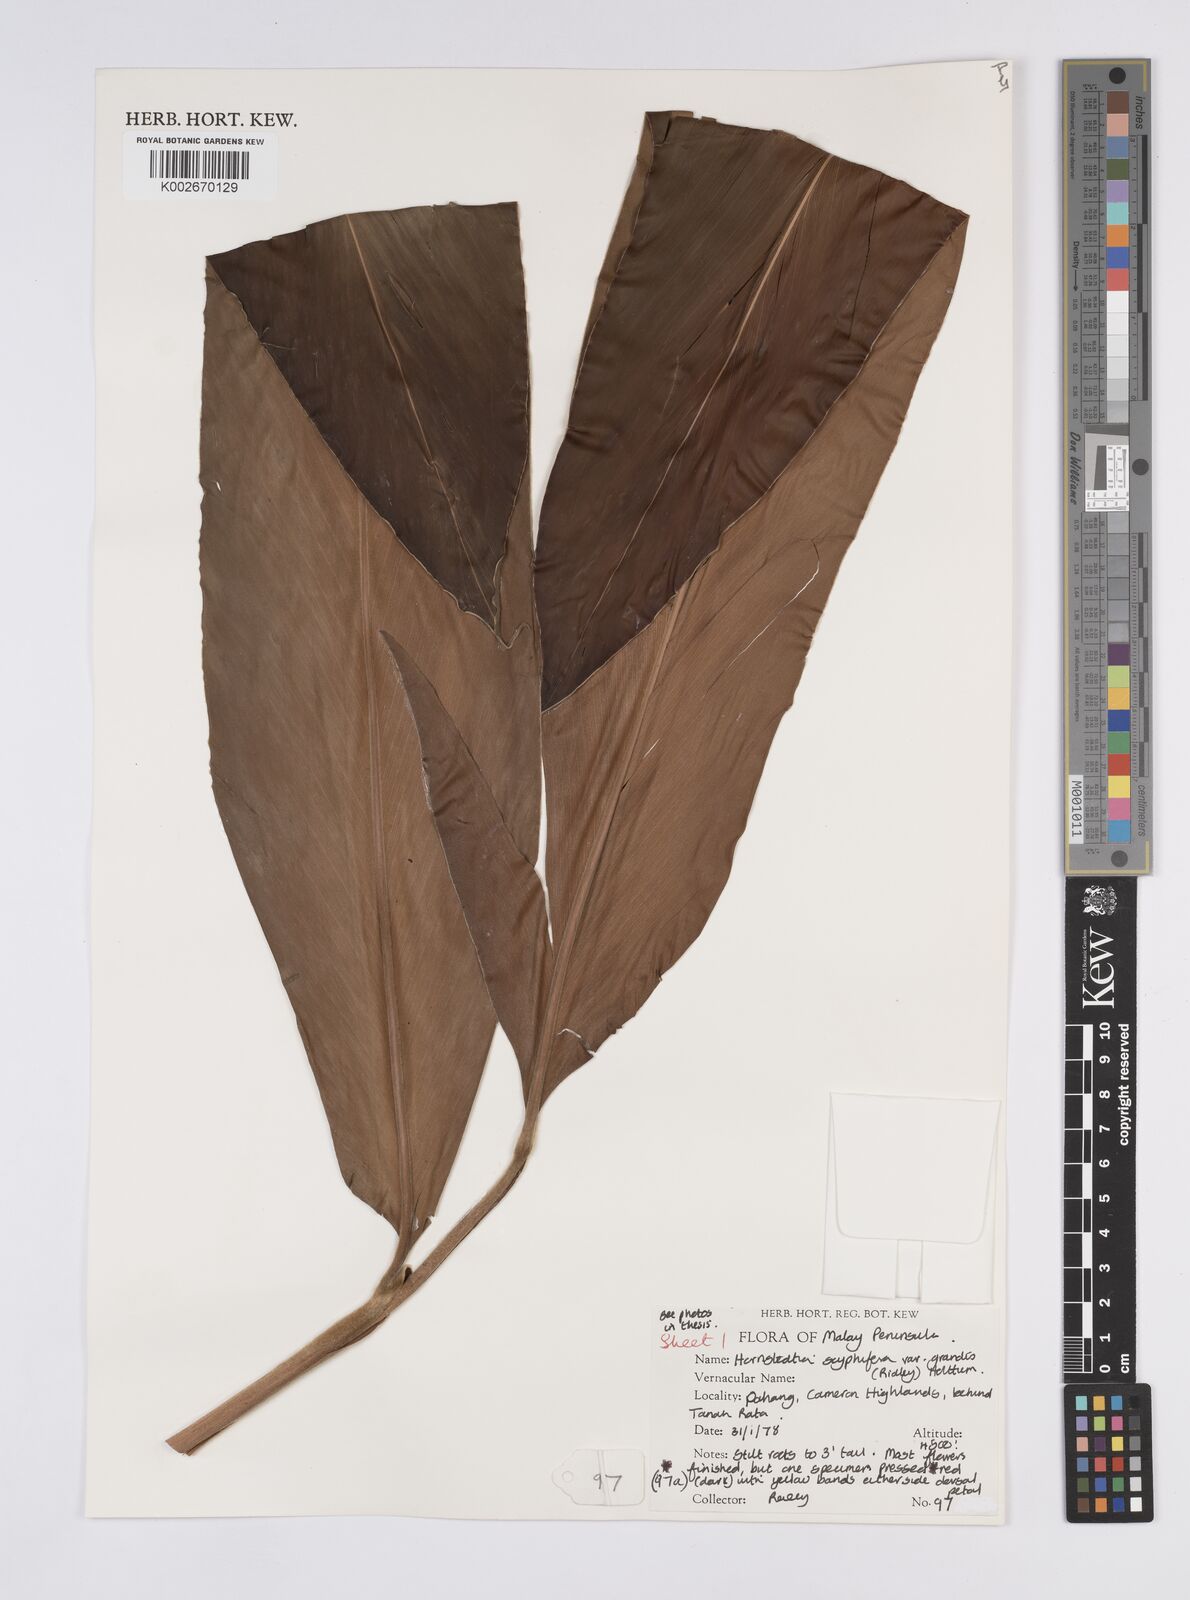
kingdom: Plantae
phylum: Tracheophyta
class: Liliopsida
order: Zingiberales
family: Zingiberaceae
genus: Hornstedtia
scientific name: Hornstedtia scyphifera
